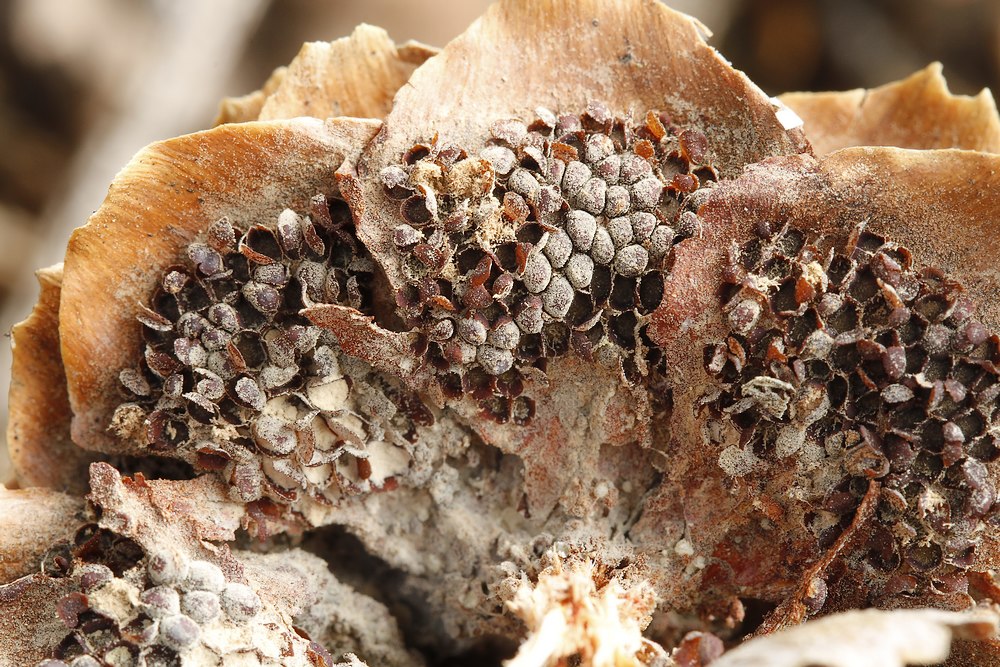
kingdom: Fungi
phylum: Basidiomycota
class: Pucciniomycetes
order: Pucciniales
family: Pucciniastraceae
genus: Thekopsora
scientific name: Thekopsora areolata
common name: grankogle-nålerust
